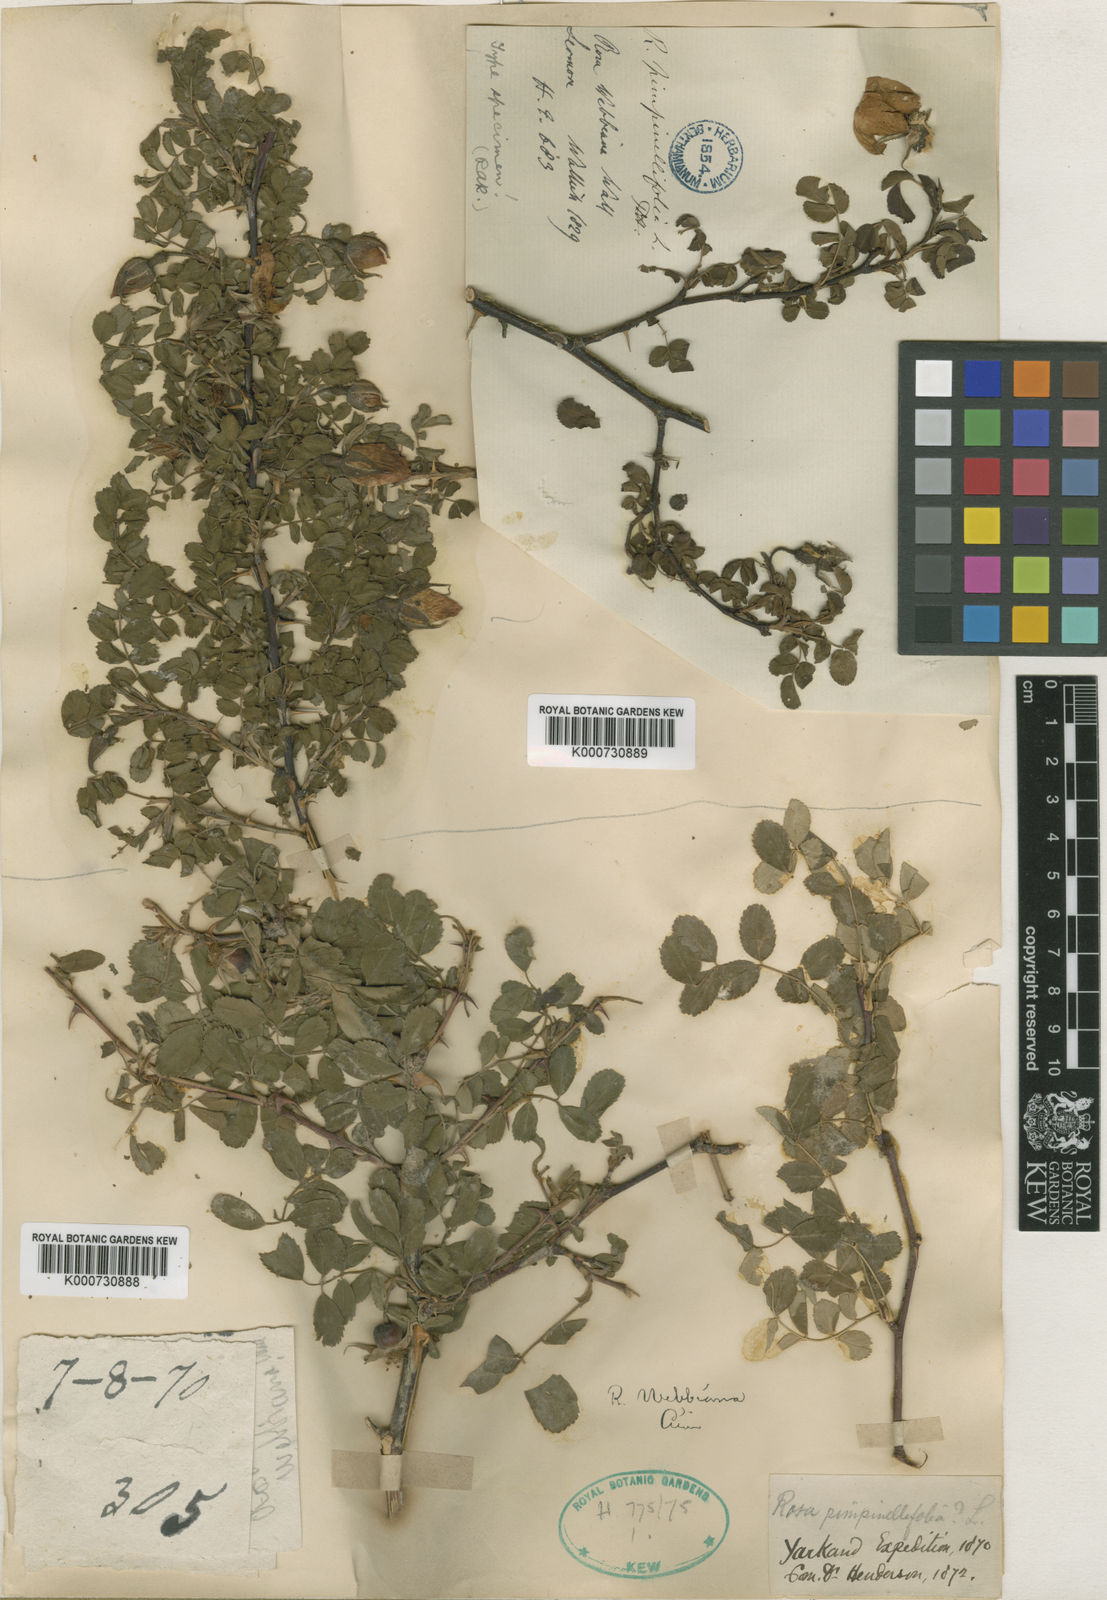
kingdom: Plantae
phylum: Tracheophyta
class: Magnoliopsida
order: Rosales
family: Rosaceae
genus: Rosa
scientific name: Rosa
